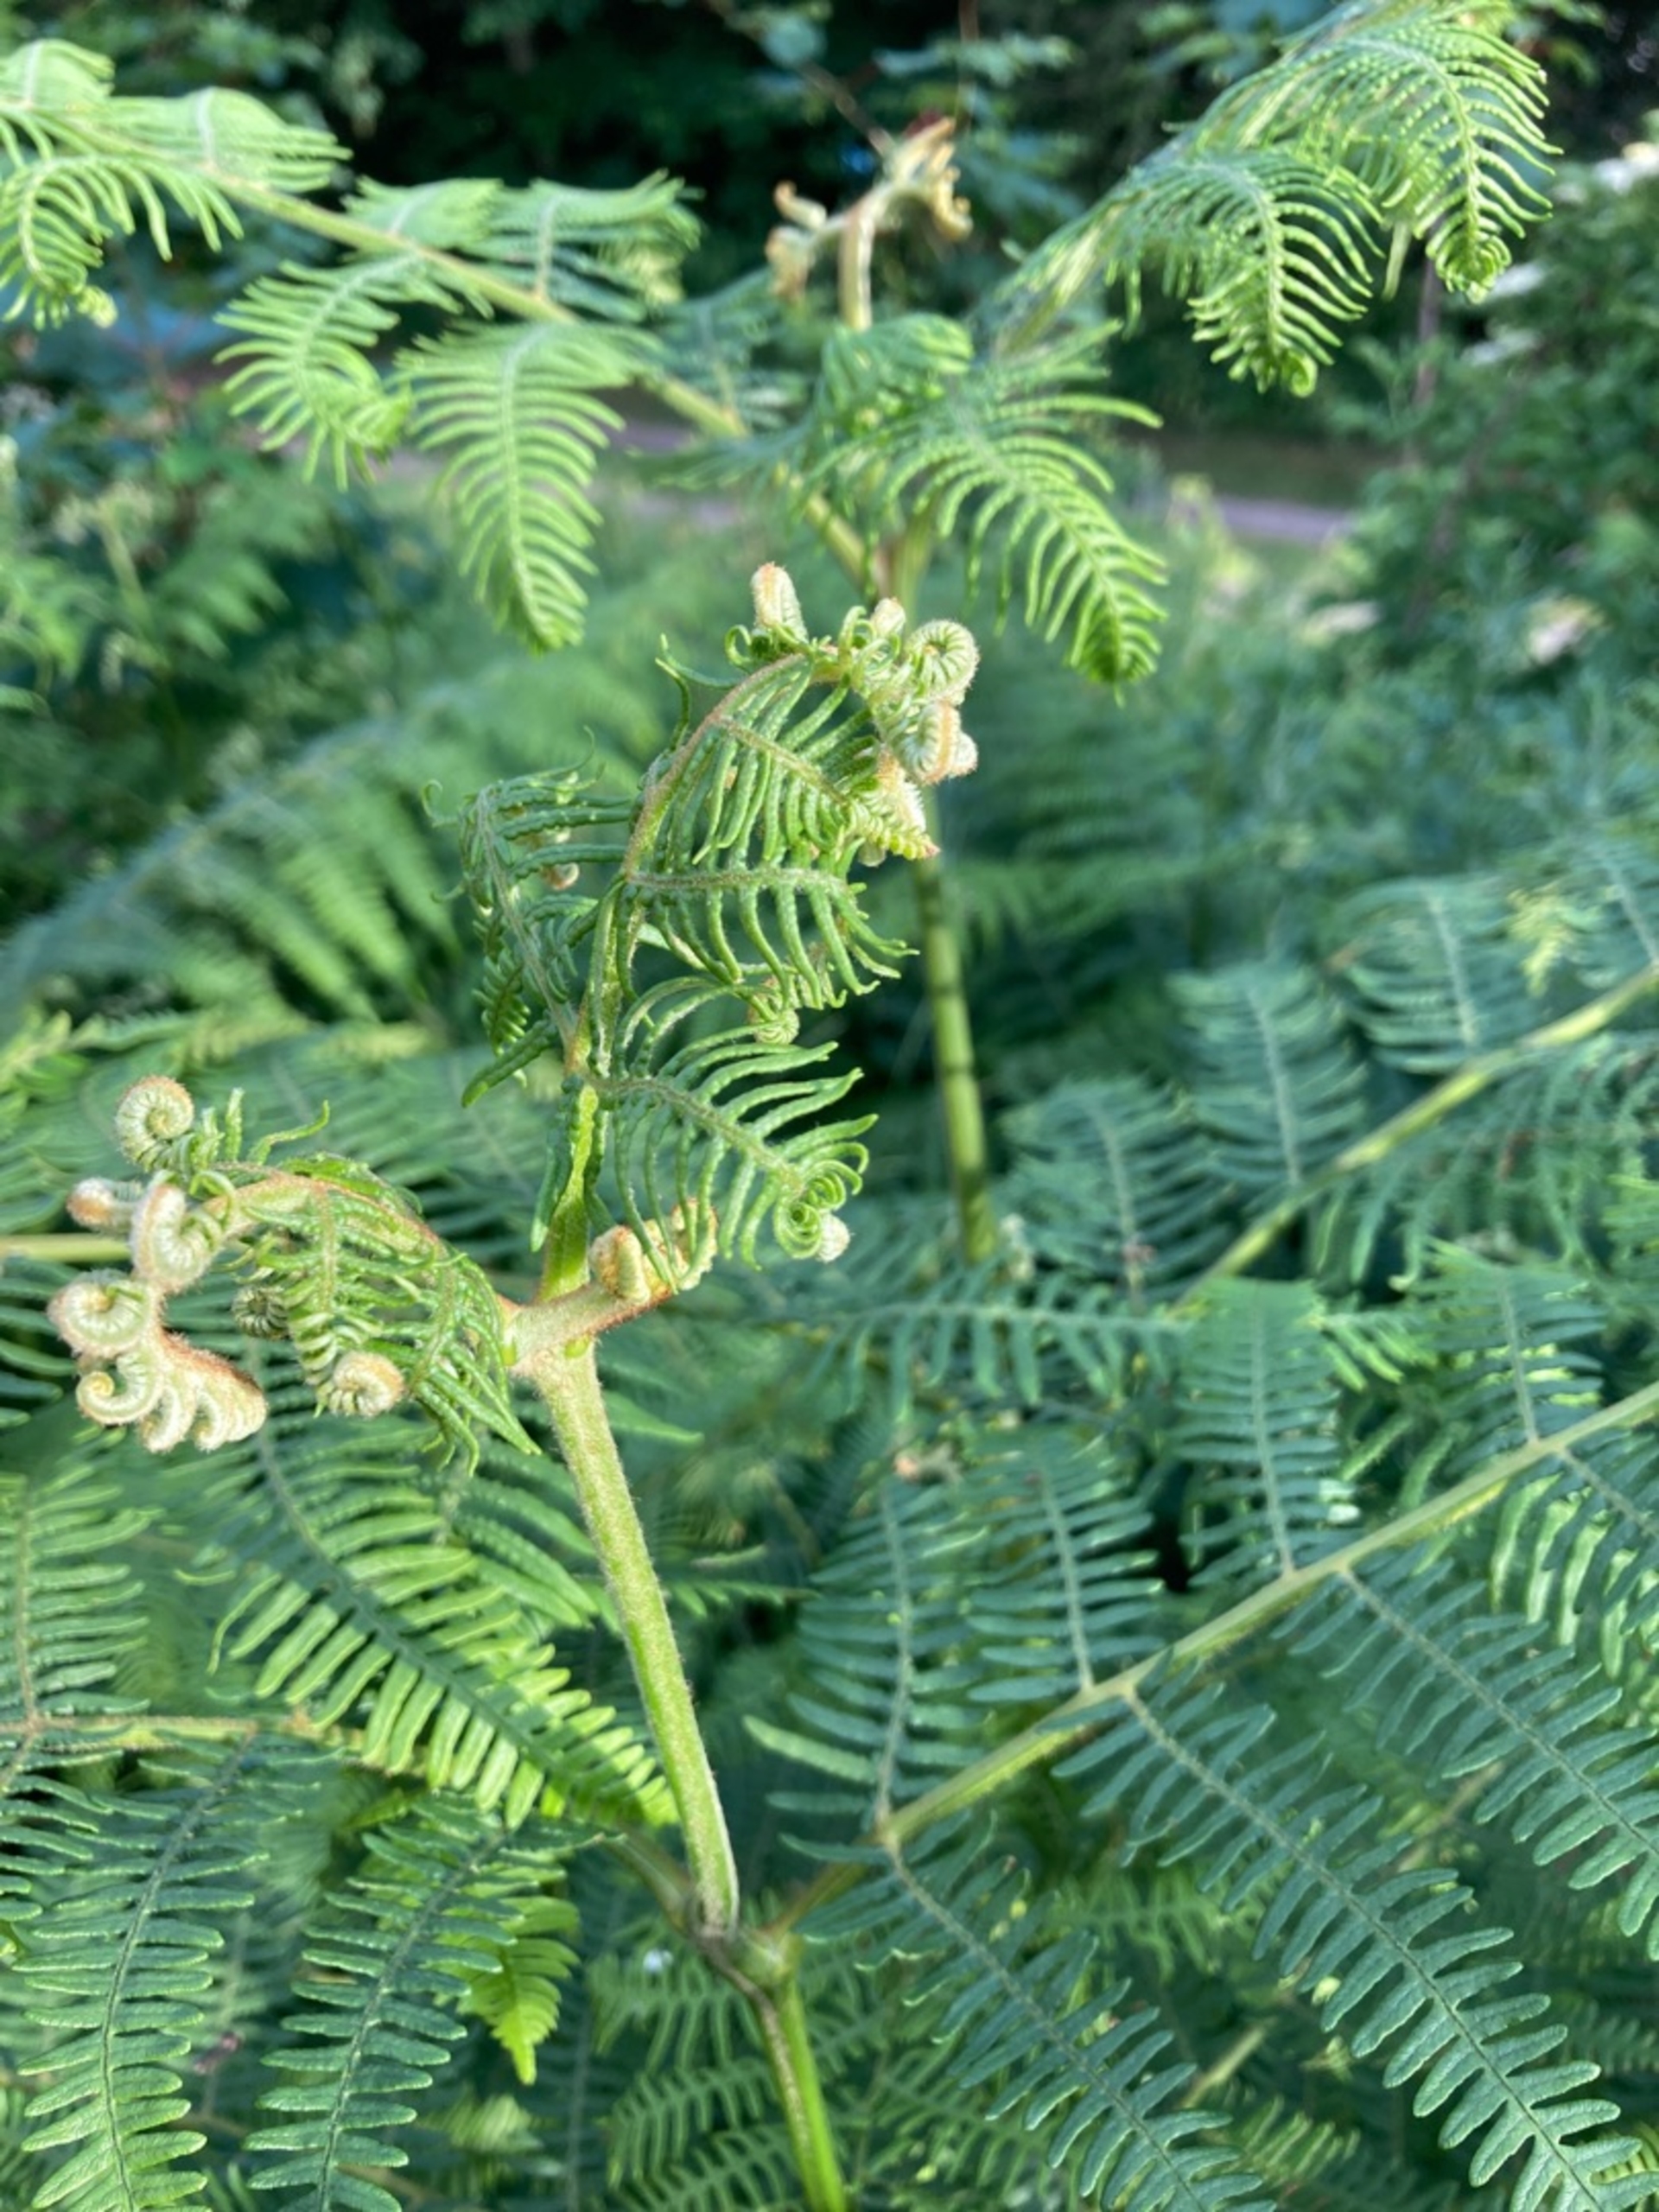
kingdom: Plantae
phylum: Tracheophyta
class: Polypodiopsida
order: Polypodiales
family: Dennstaedtiaceae
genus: Pteridium
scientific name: Pteridium aquilinum
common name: Ørnebregne
